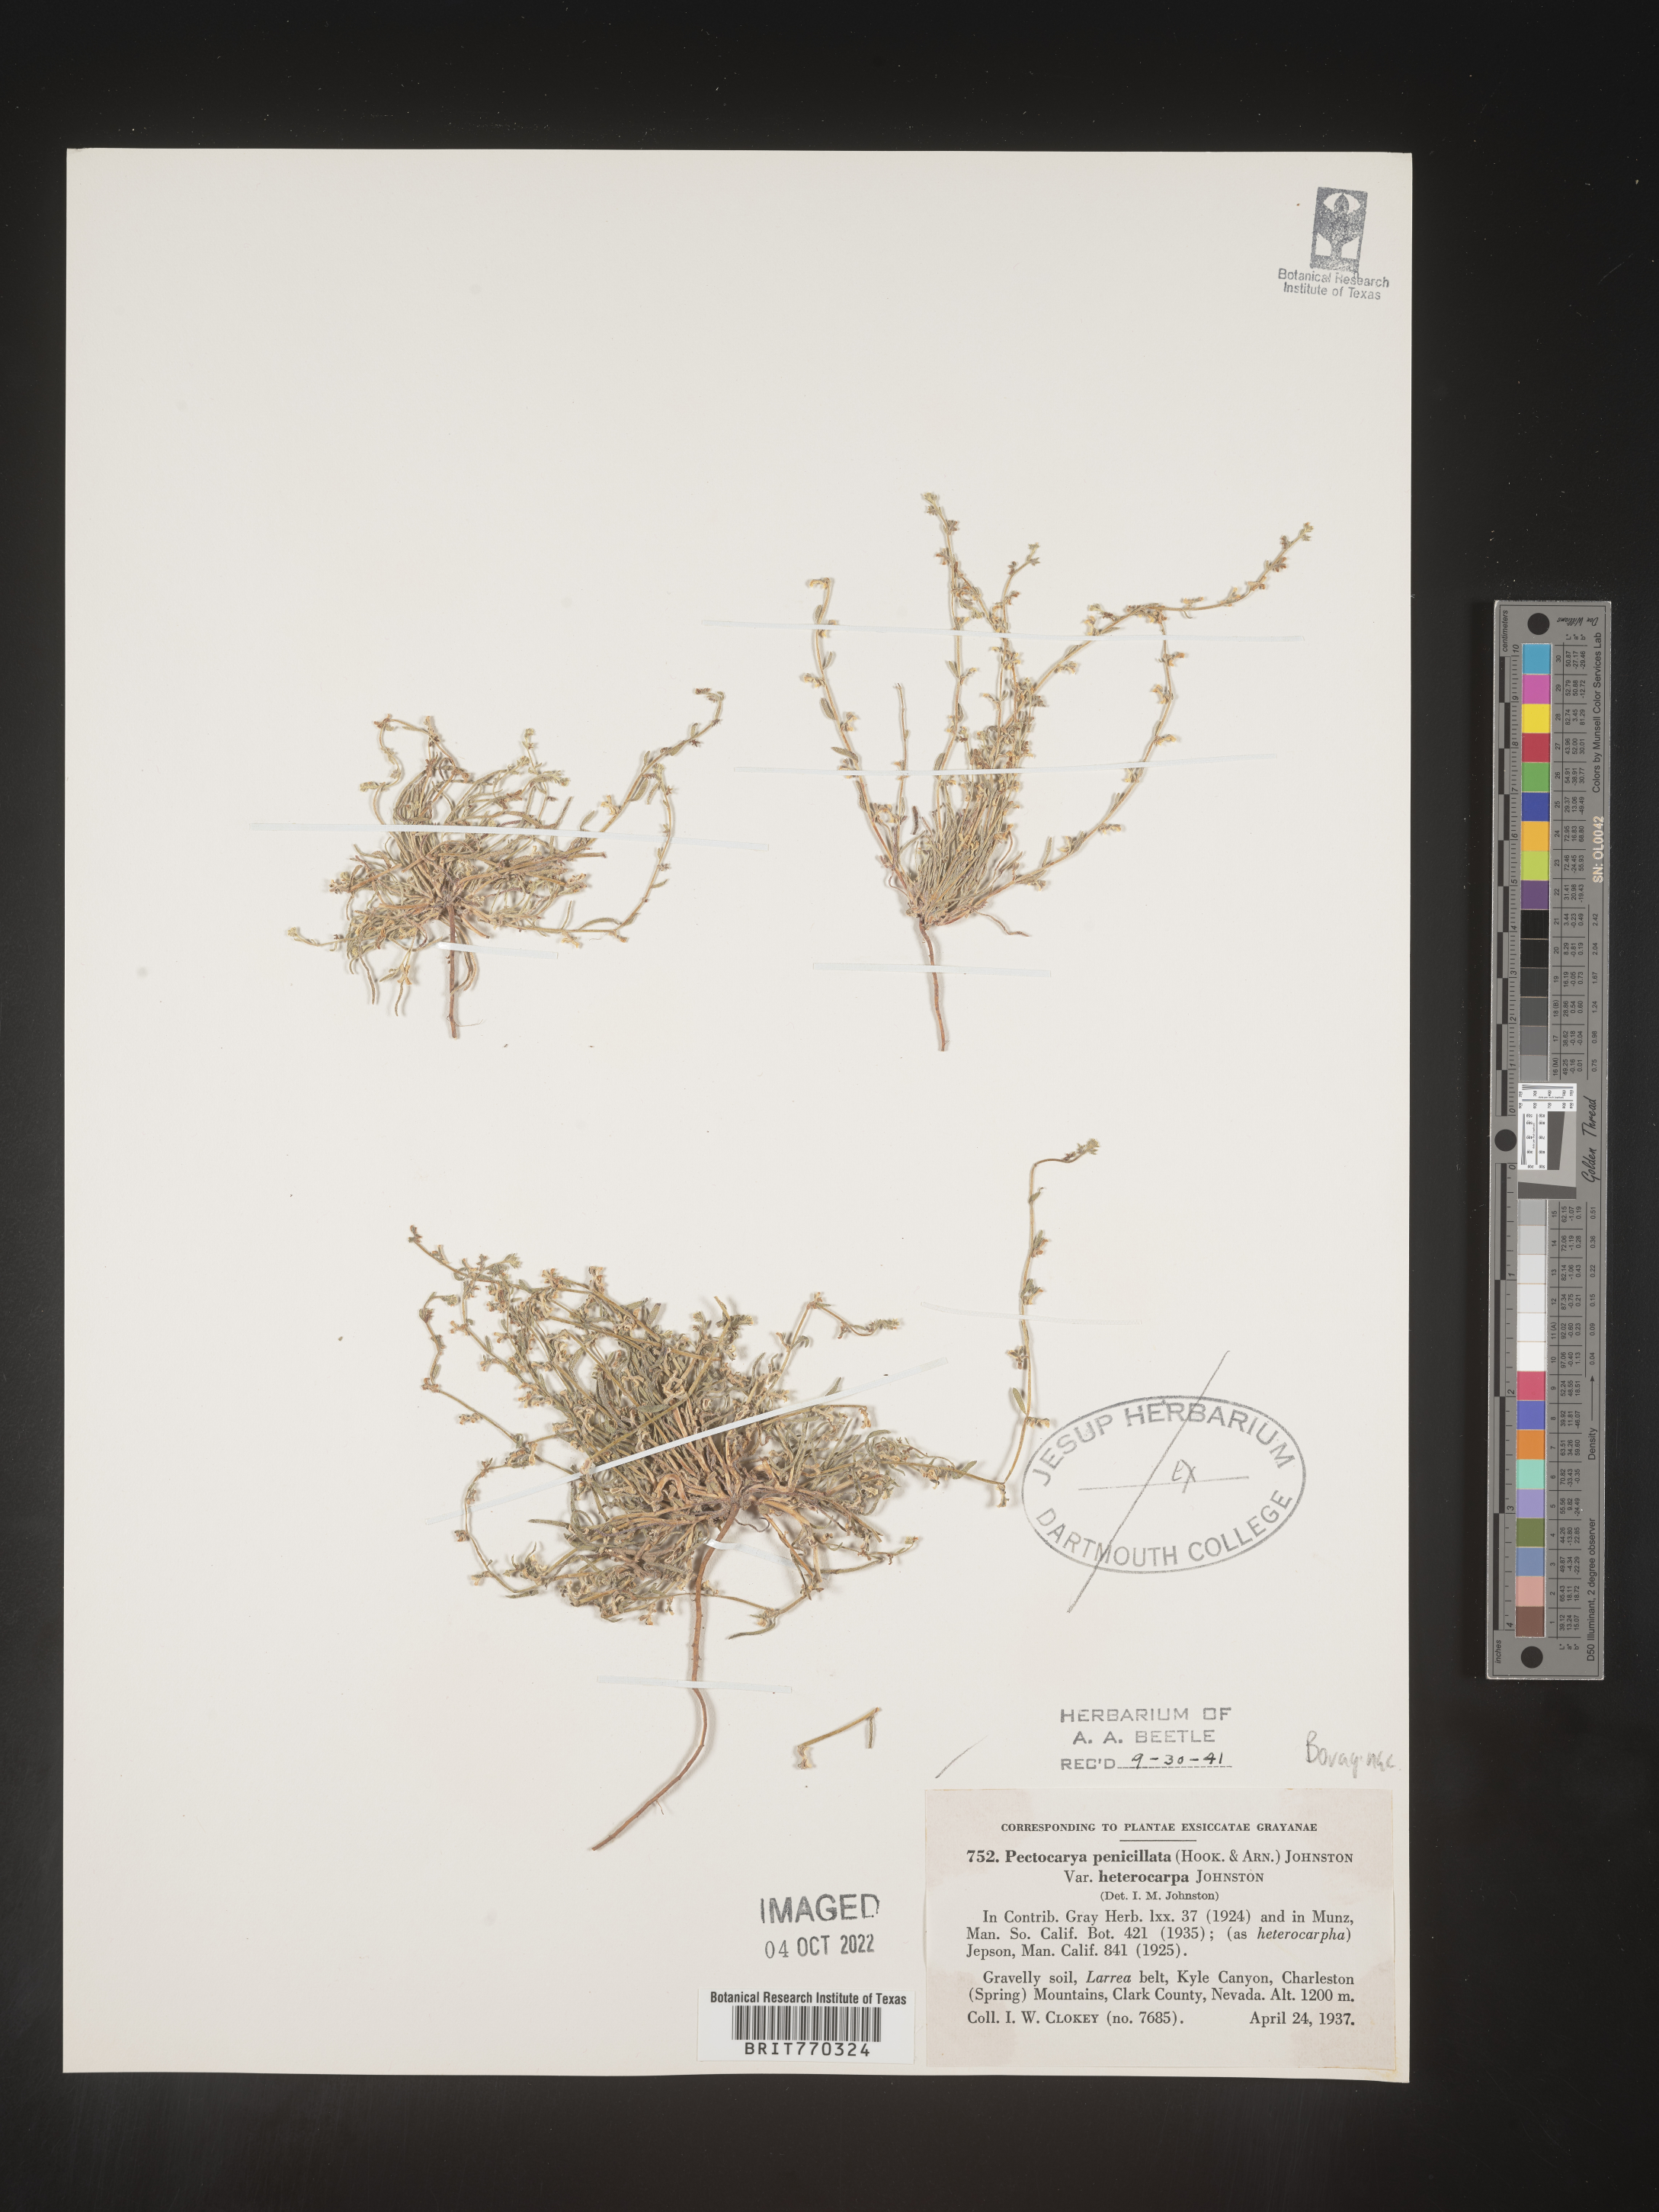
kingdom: Plantae
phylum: Tracheophyta
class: Magnoliopsida
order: Boraginales
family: Boraginaceae
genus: Pectocarya
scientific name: Pectocarya
